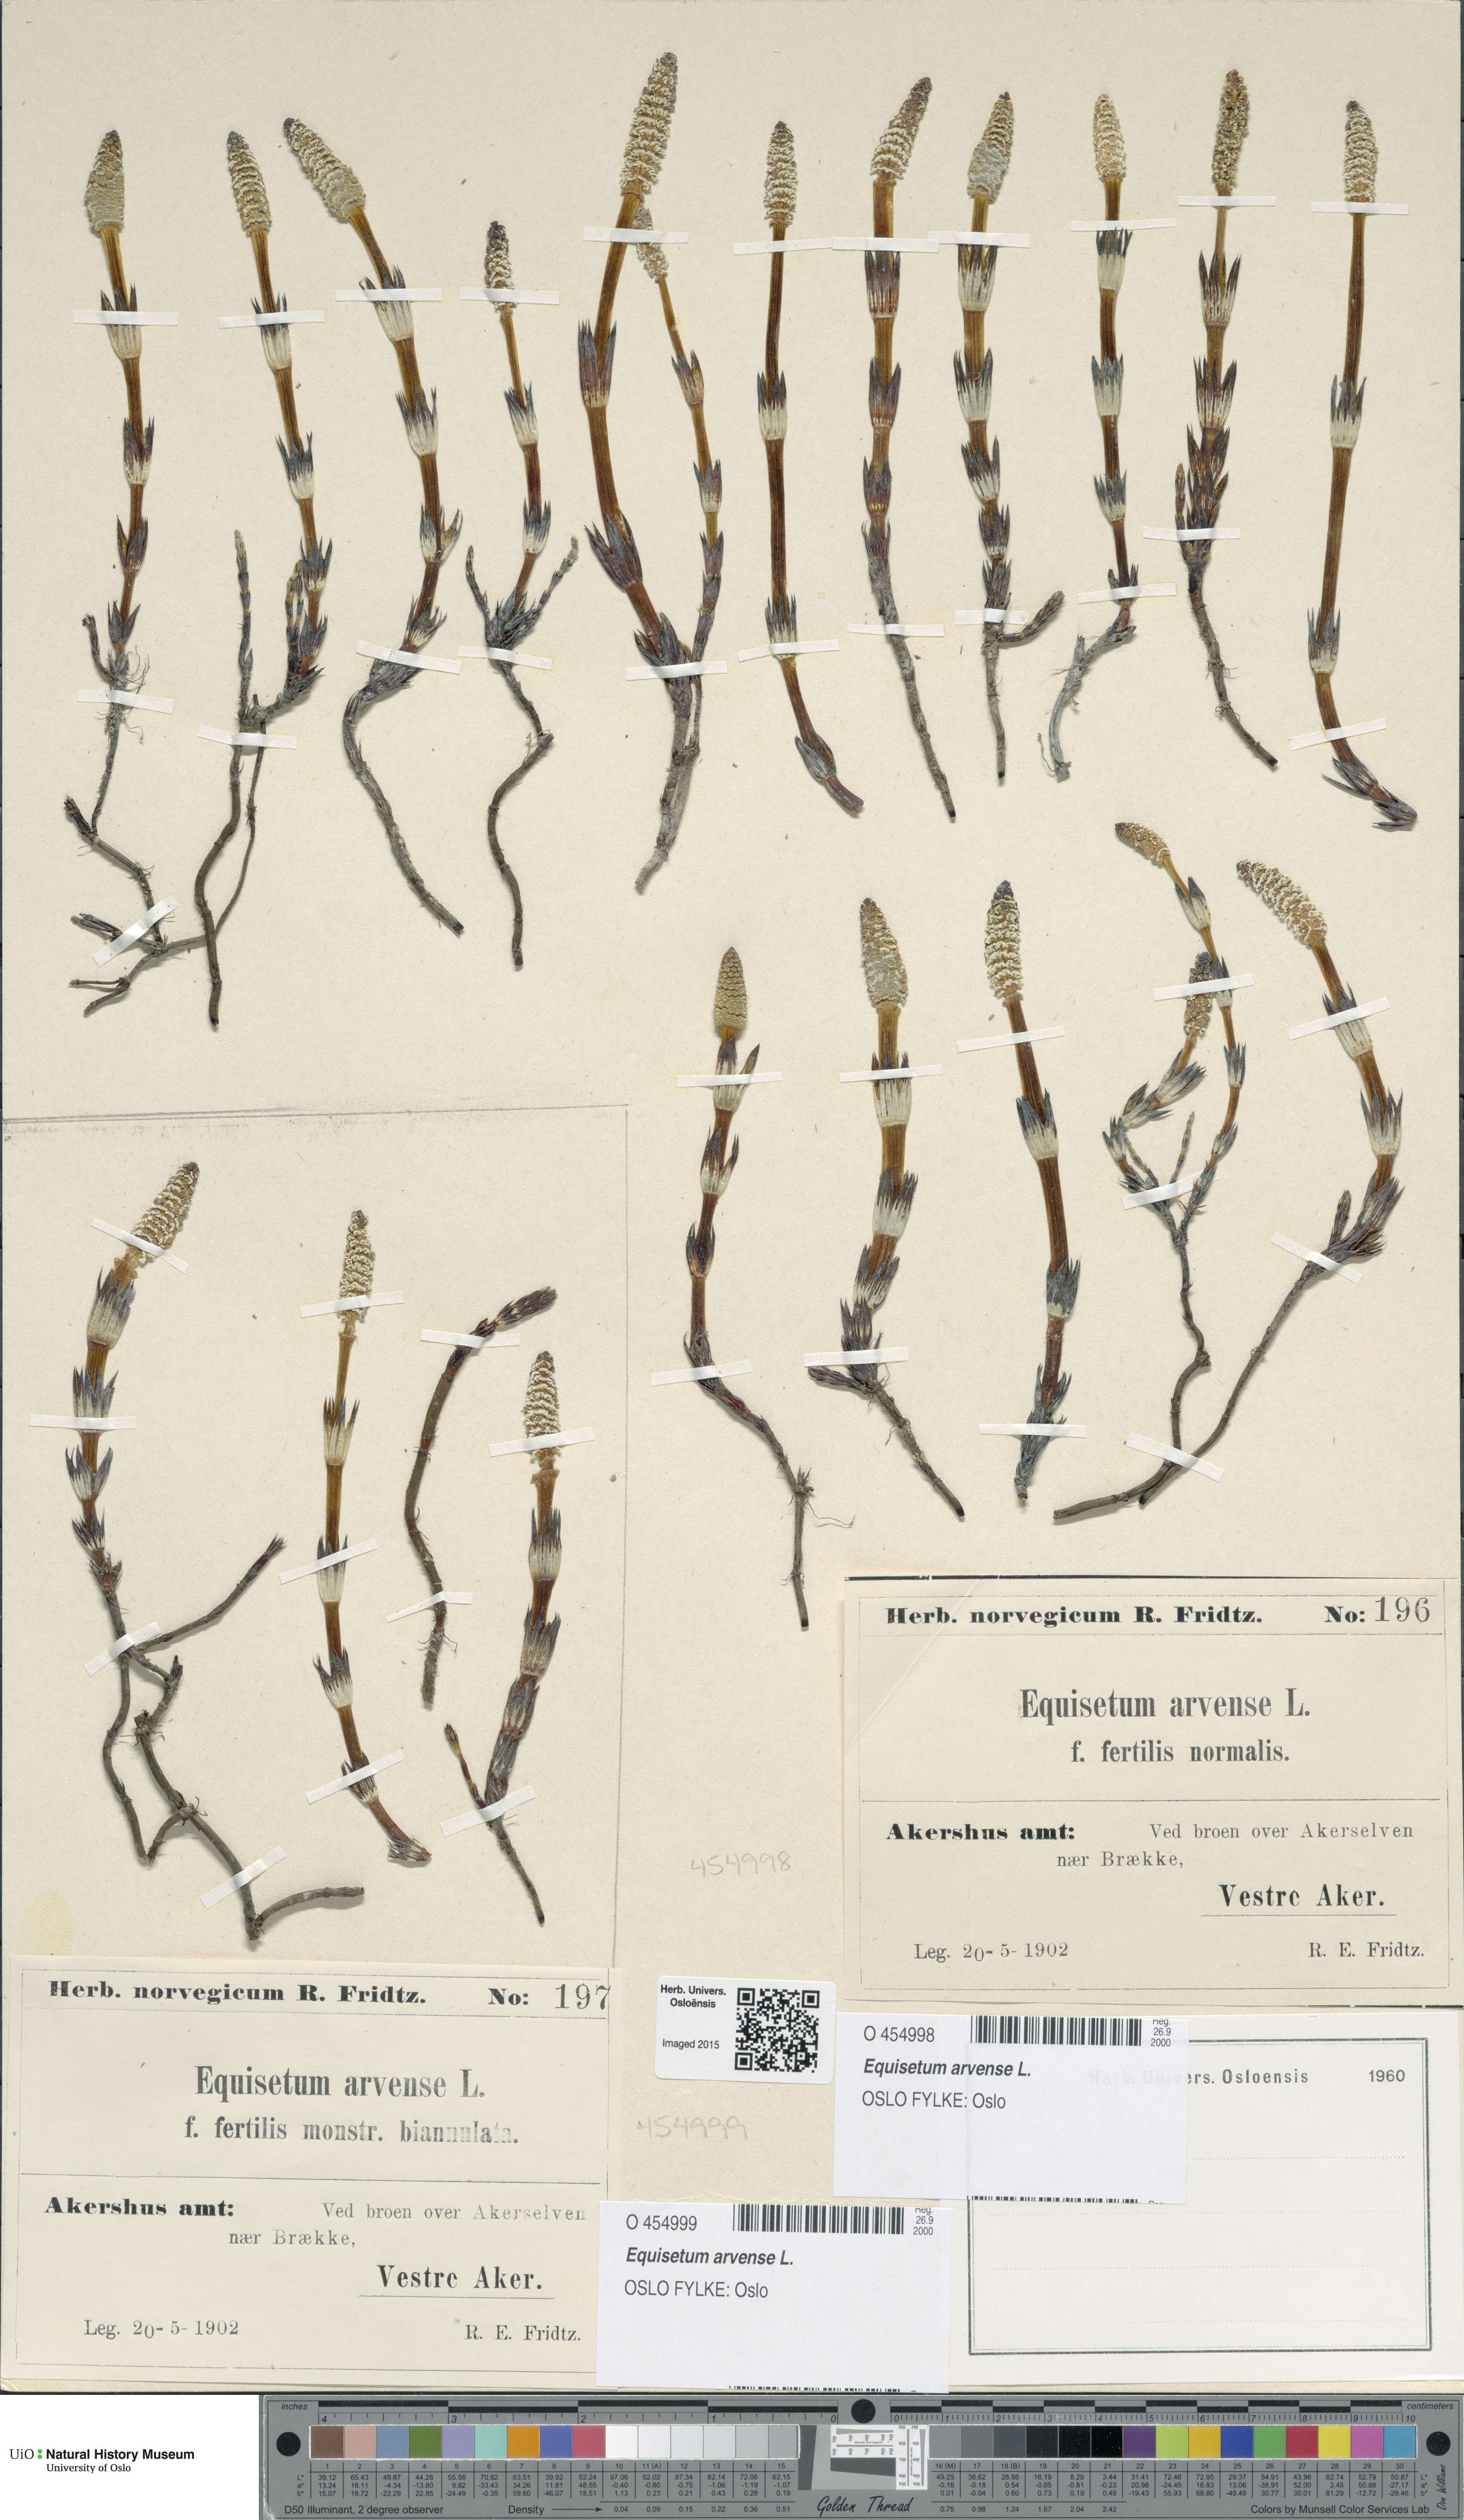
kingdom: Plantae
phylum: Tracheophyta
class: Polypodiopsida
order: Equisetales
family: Equisetaceae
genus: Equisetum
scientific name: Equisetum arvense
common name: Field horsetail
